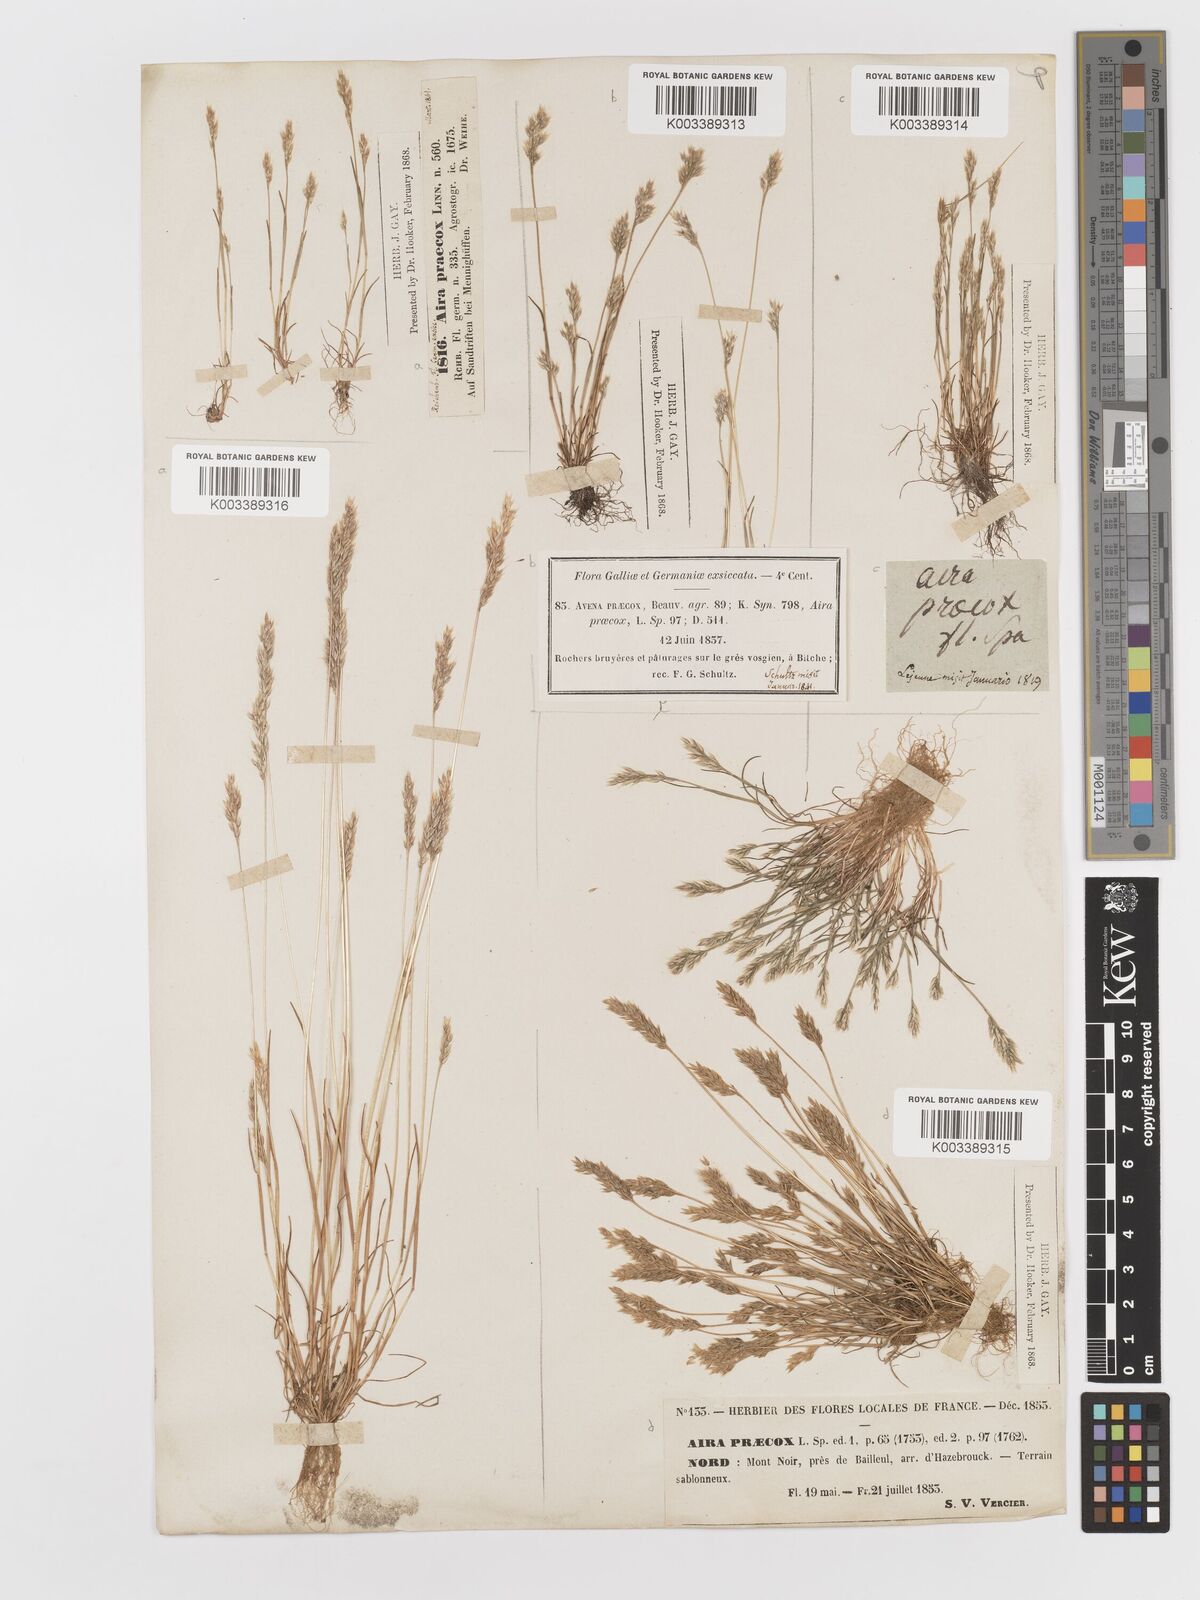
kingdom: Plantae
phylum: Tracheophyta
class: Liliopsida
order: Poales
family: Poaceae
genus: Aira
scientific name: Aira praecox
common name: Early hair-grass
